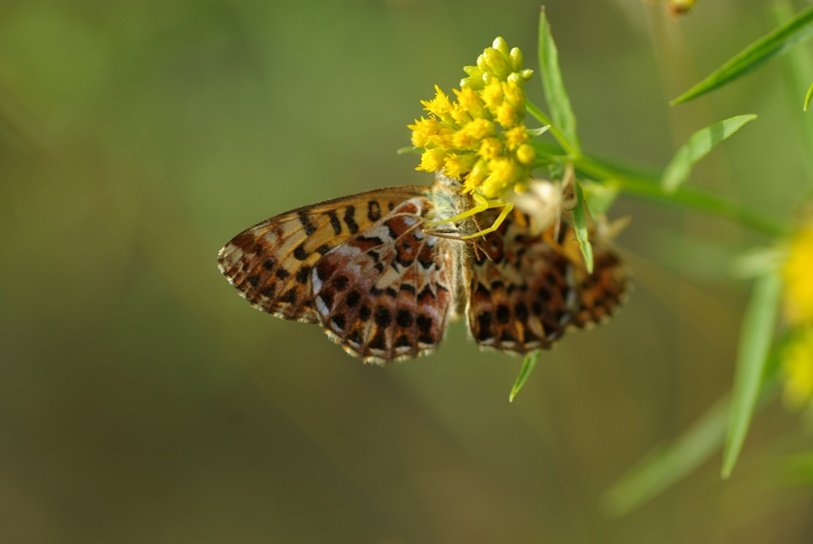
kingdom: Animalia
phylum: Arthropoda
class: Insecta
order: Lepidoptera
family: Nymphalidae
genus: Boloria
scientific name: Boloria chariclea
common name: Arctic Fritillary
